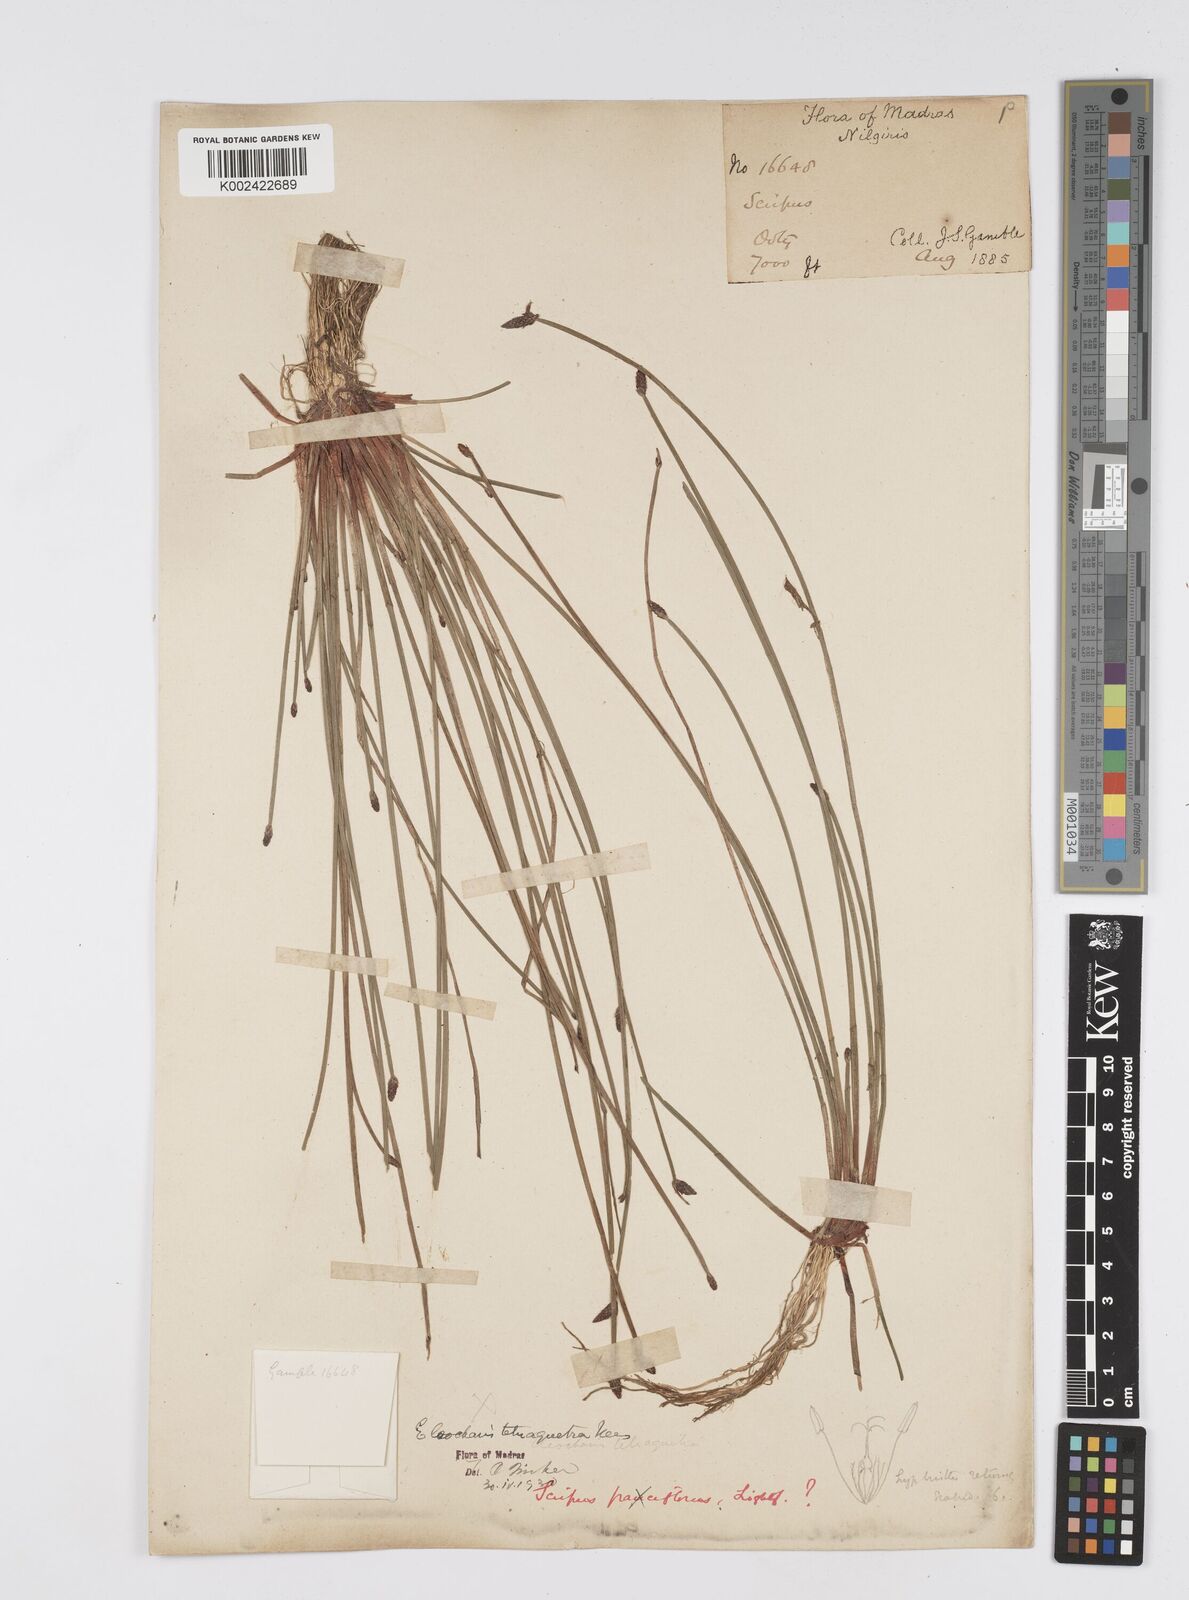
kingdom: Plantae
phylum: Tracheophyta
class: Liliopsida
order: Poales
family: Cyperaceae
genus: Eleocharis
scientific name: Eleocharis congesta
